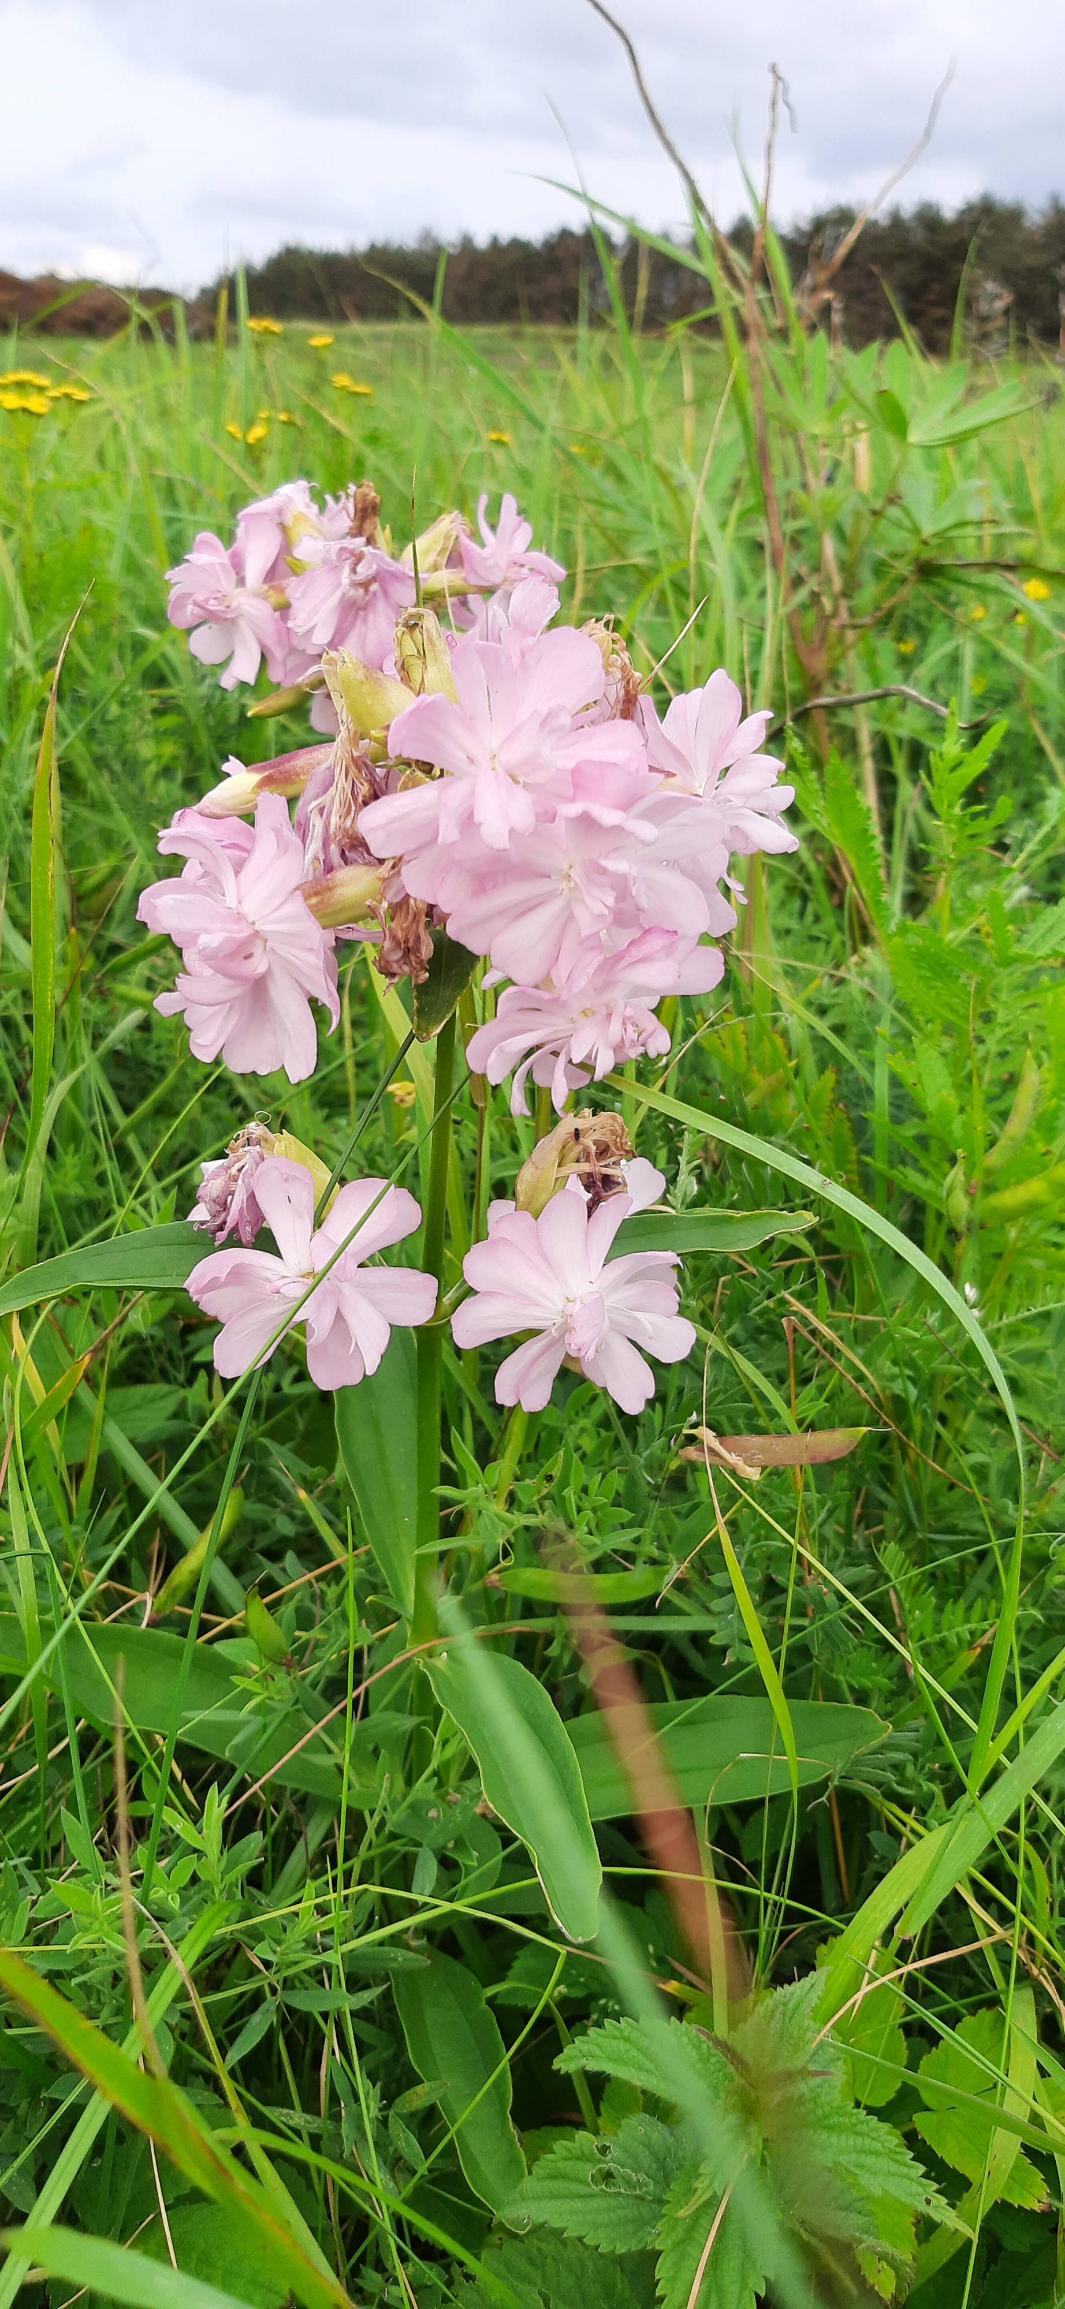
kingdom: Plantae
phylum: Tracheophyta
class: Magnoliopsida
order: Caryophyllales
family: Caryophyllaceae
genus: Saponaria
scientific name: Saponaria officinalis
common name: Sæbeurt
